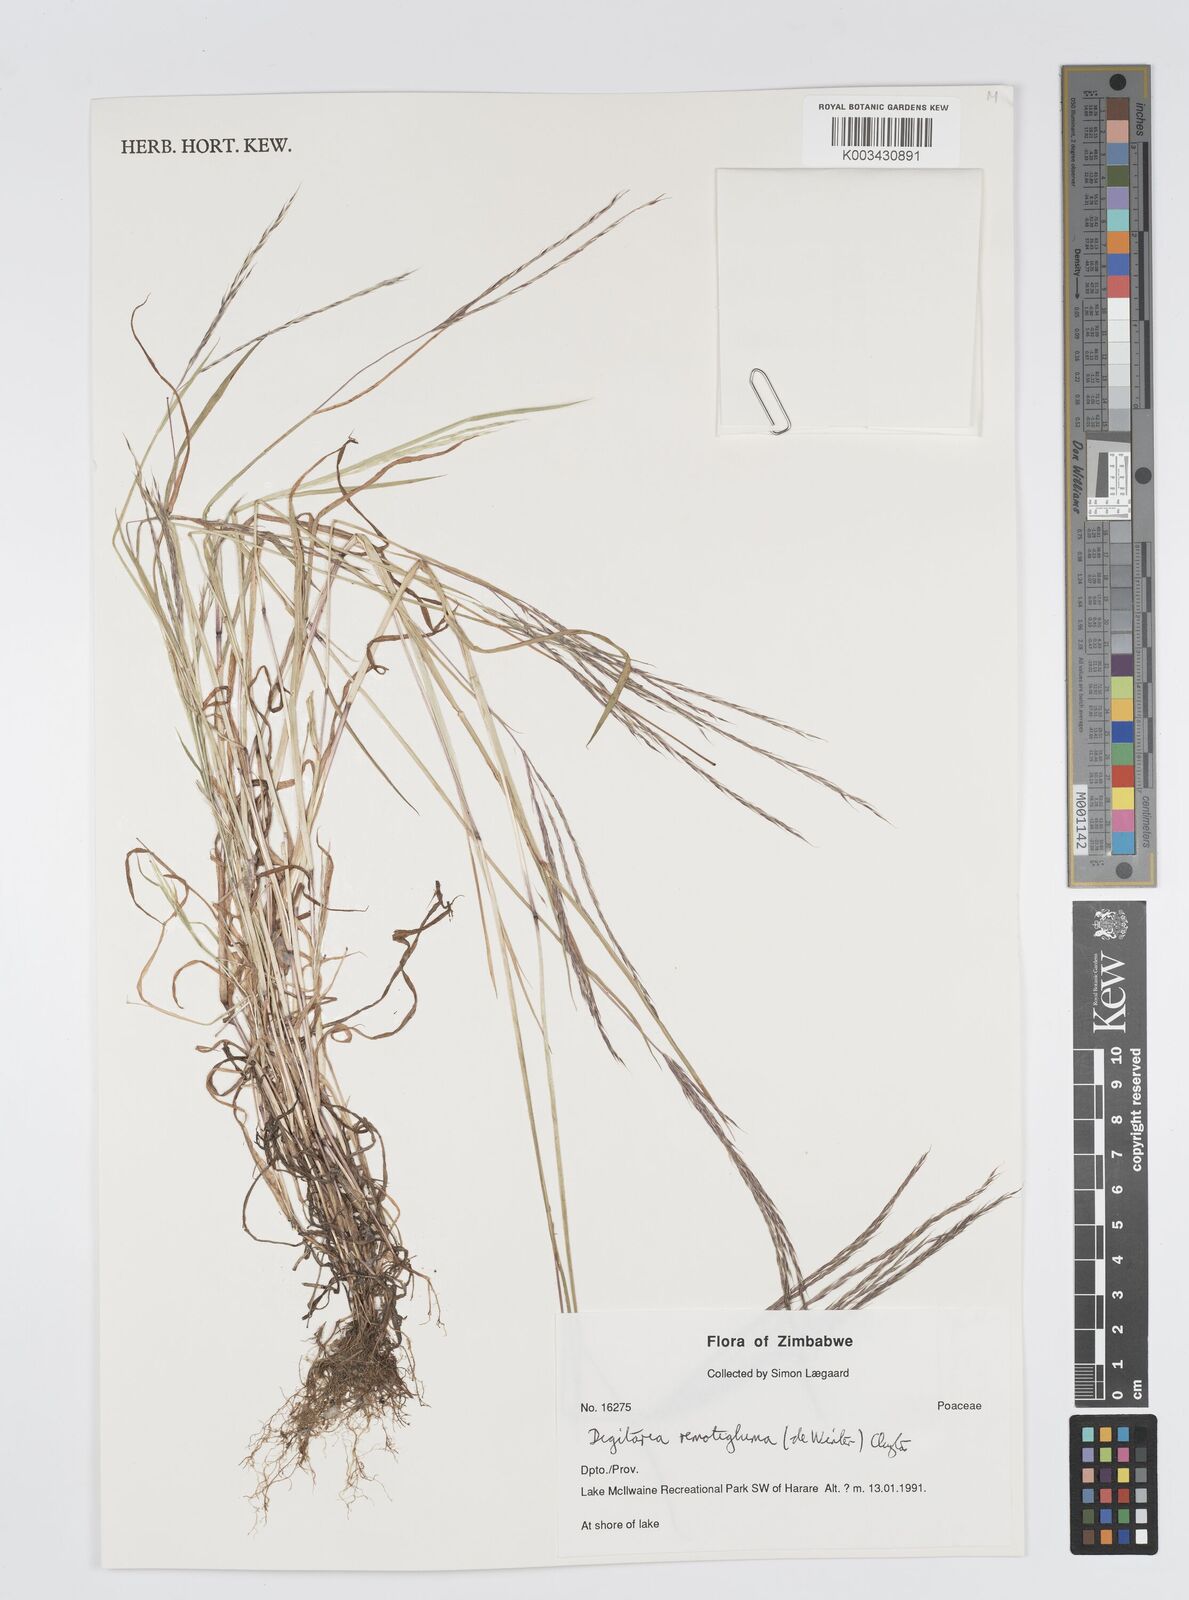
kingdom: Plantae
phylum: Tracheophyta
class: Liliopsida
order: Poales
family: Poaceae
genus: Digitaria
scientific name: Digitaria remotigluma
